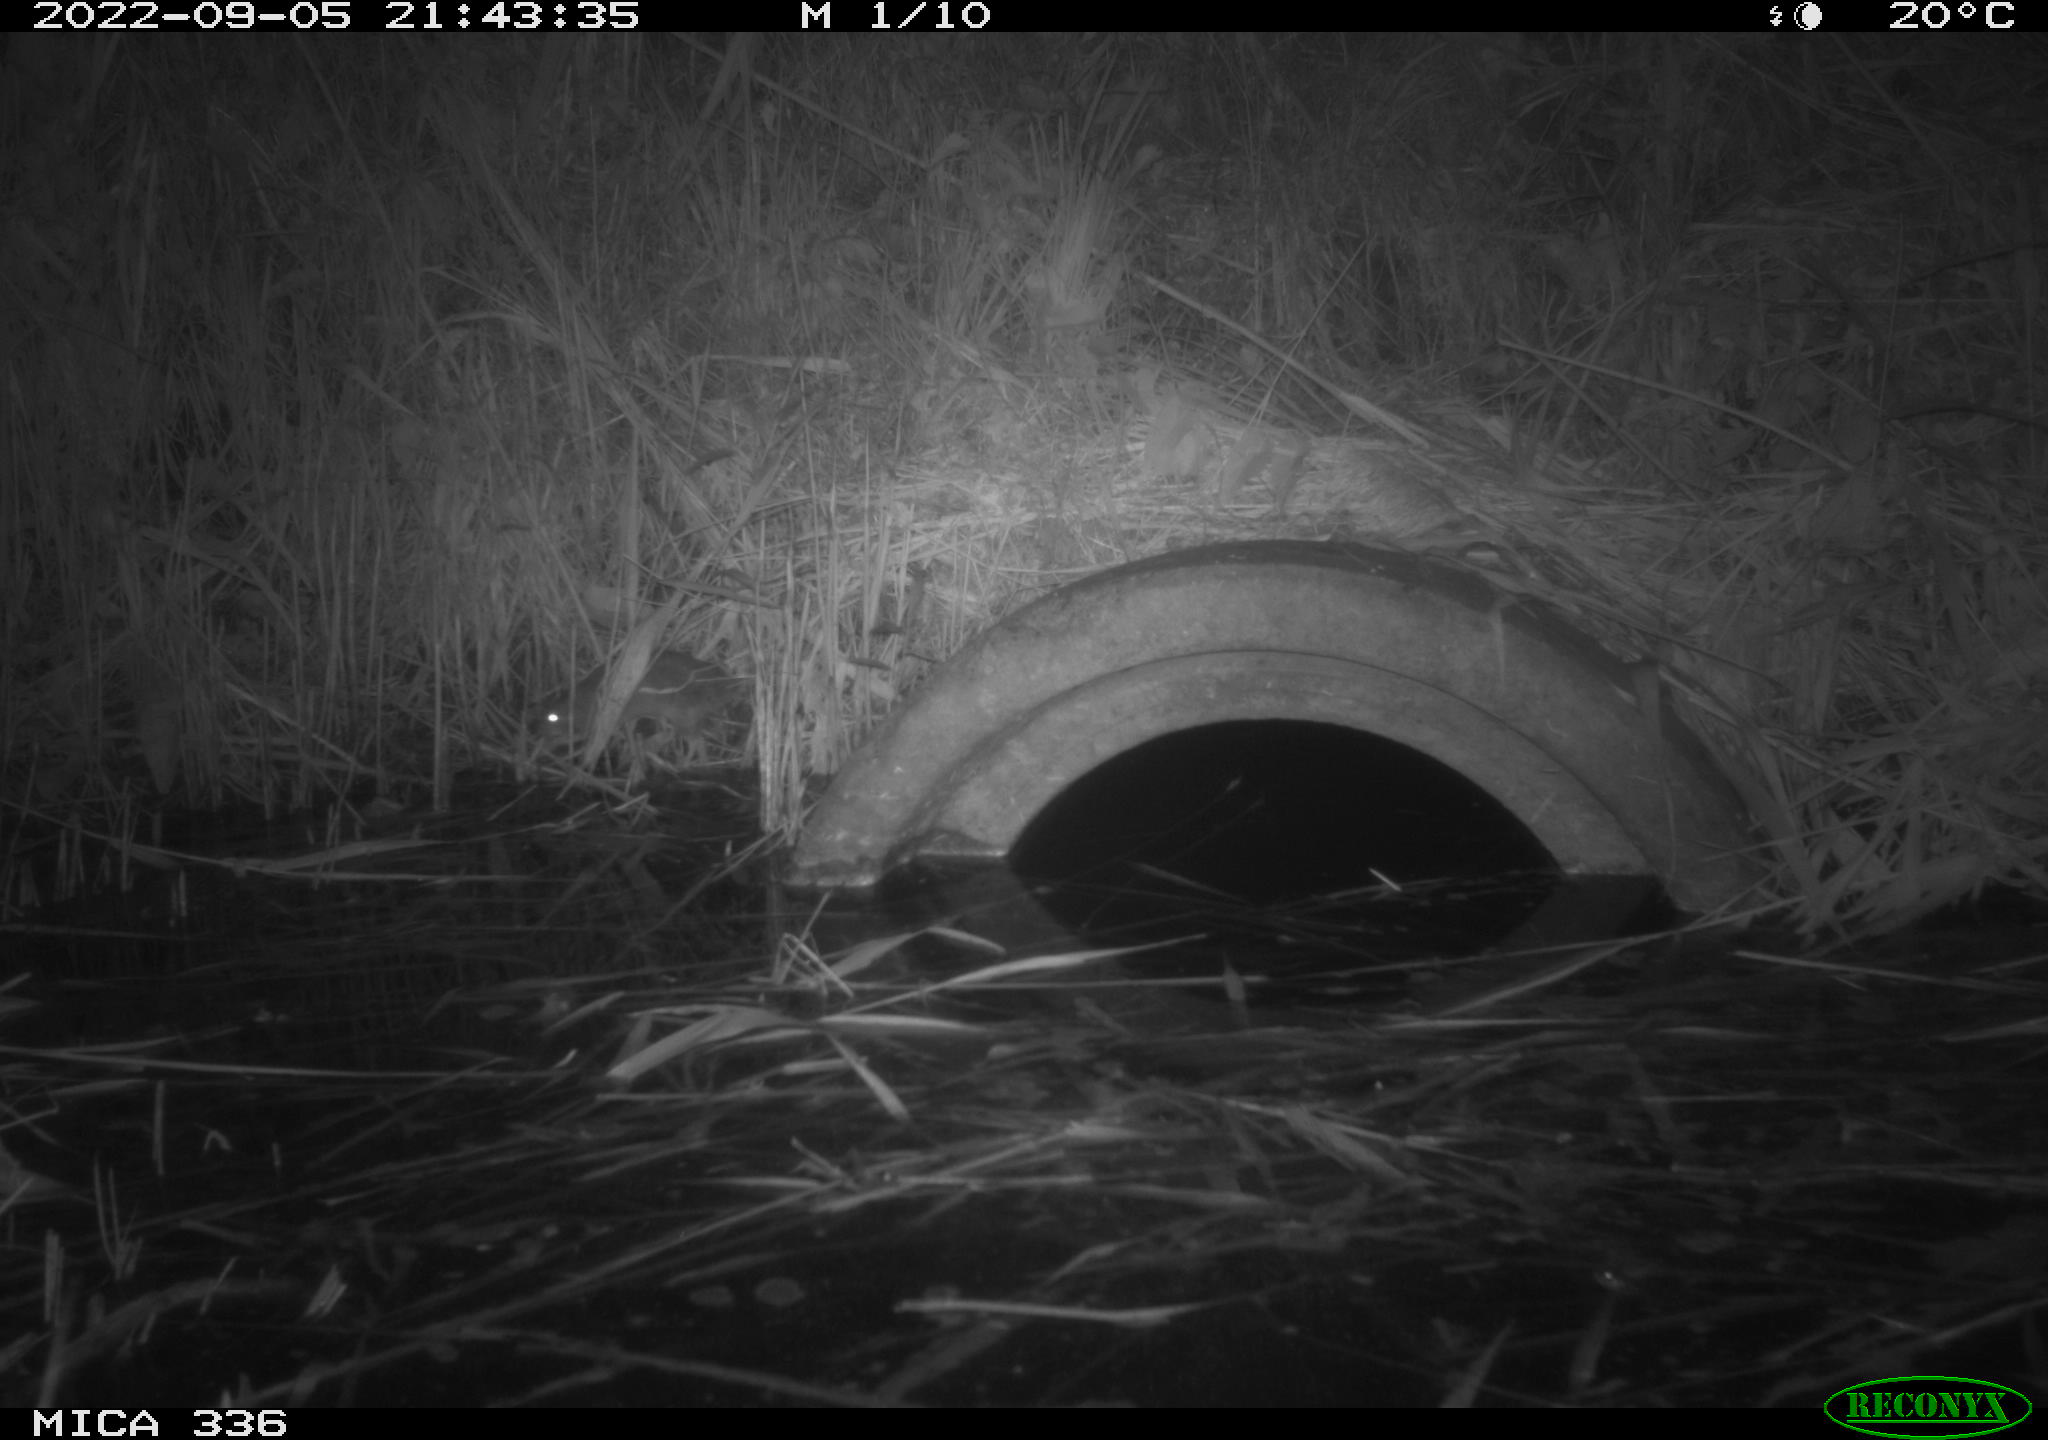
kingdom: Animalia
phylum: Chordata
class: Mammalia
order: Rodentia
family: Muridae
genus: Rattus
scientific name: Rattus norvegicus
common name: Brown rat
